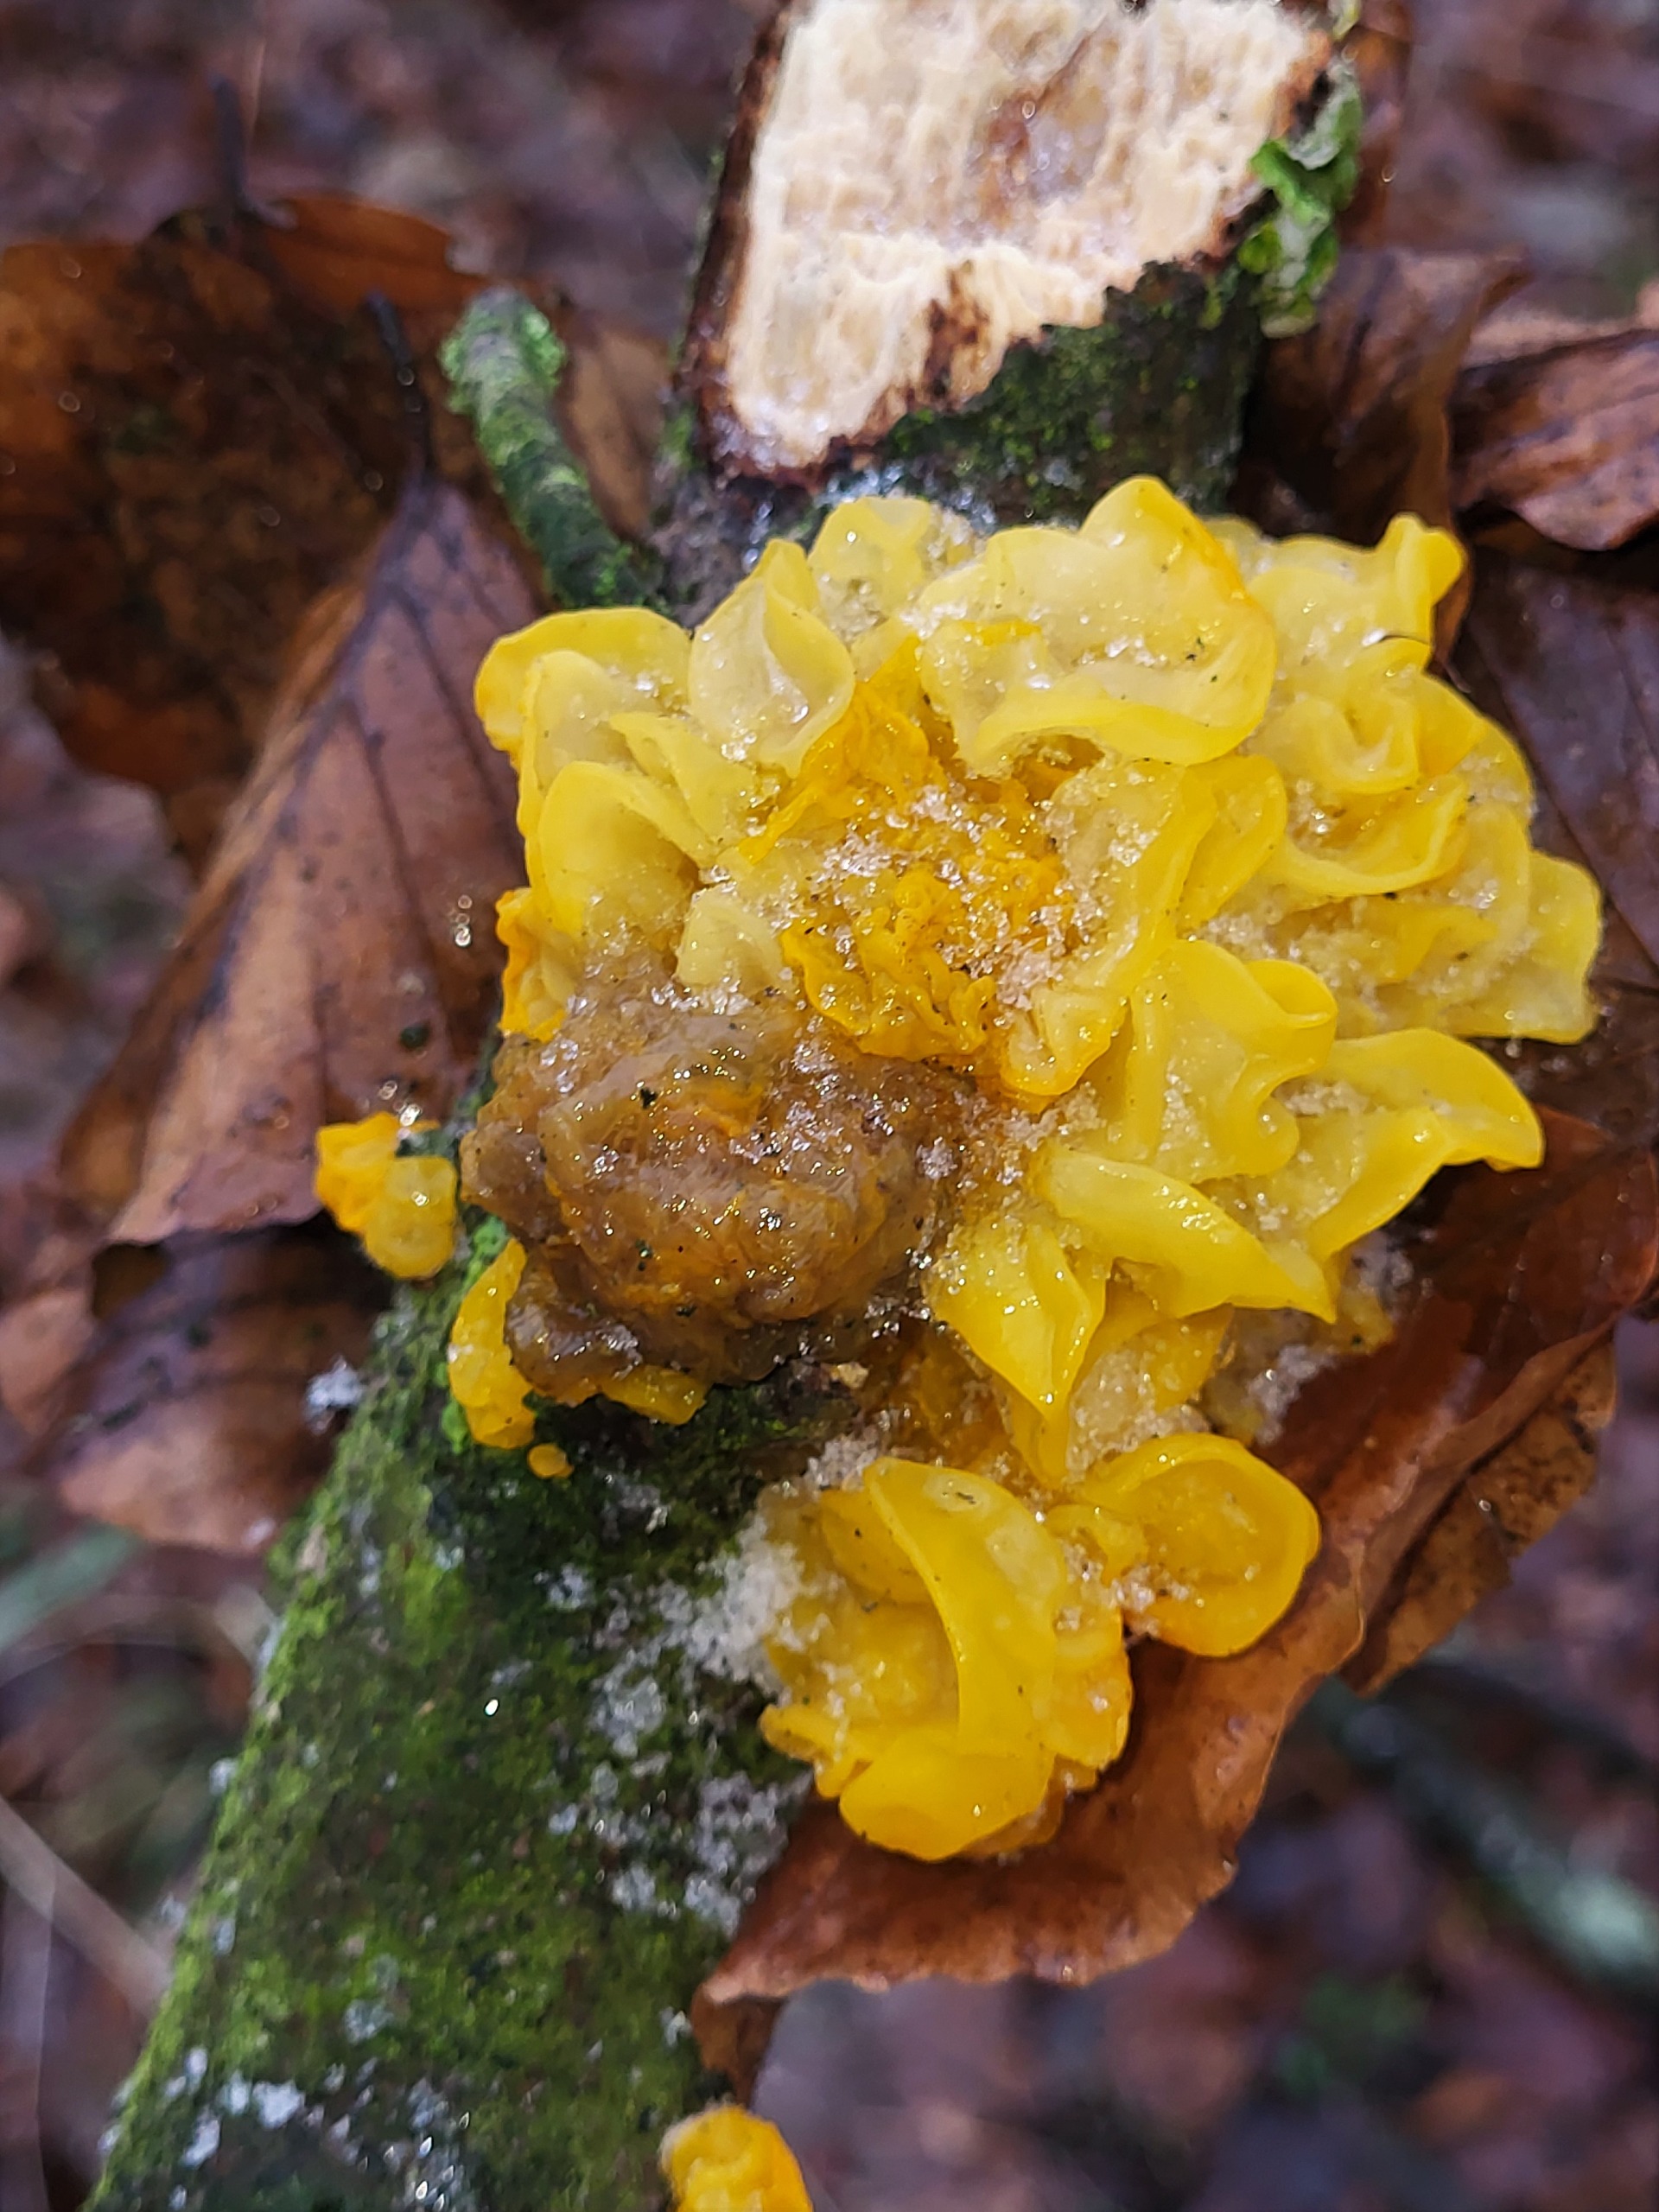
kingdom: Fungi
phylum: Basidiomycota
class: Tremellomycetes
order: Tremellales
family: Tremellaceae
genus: Tremella
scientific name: Tremella mesenterica
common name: Gul bævresvamp
